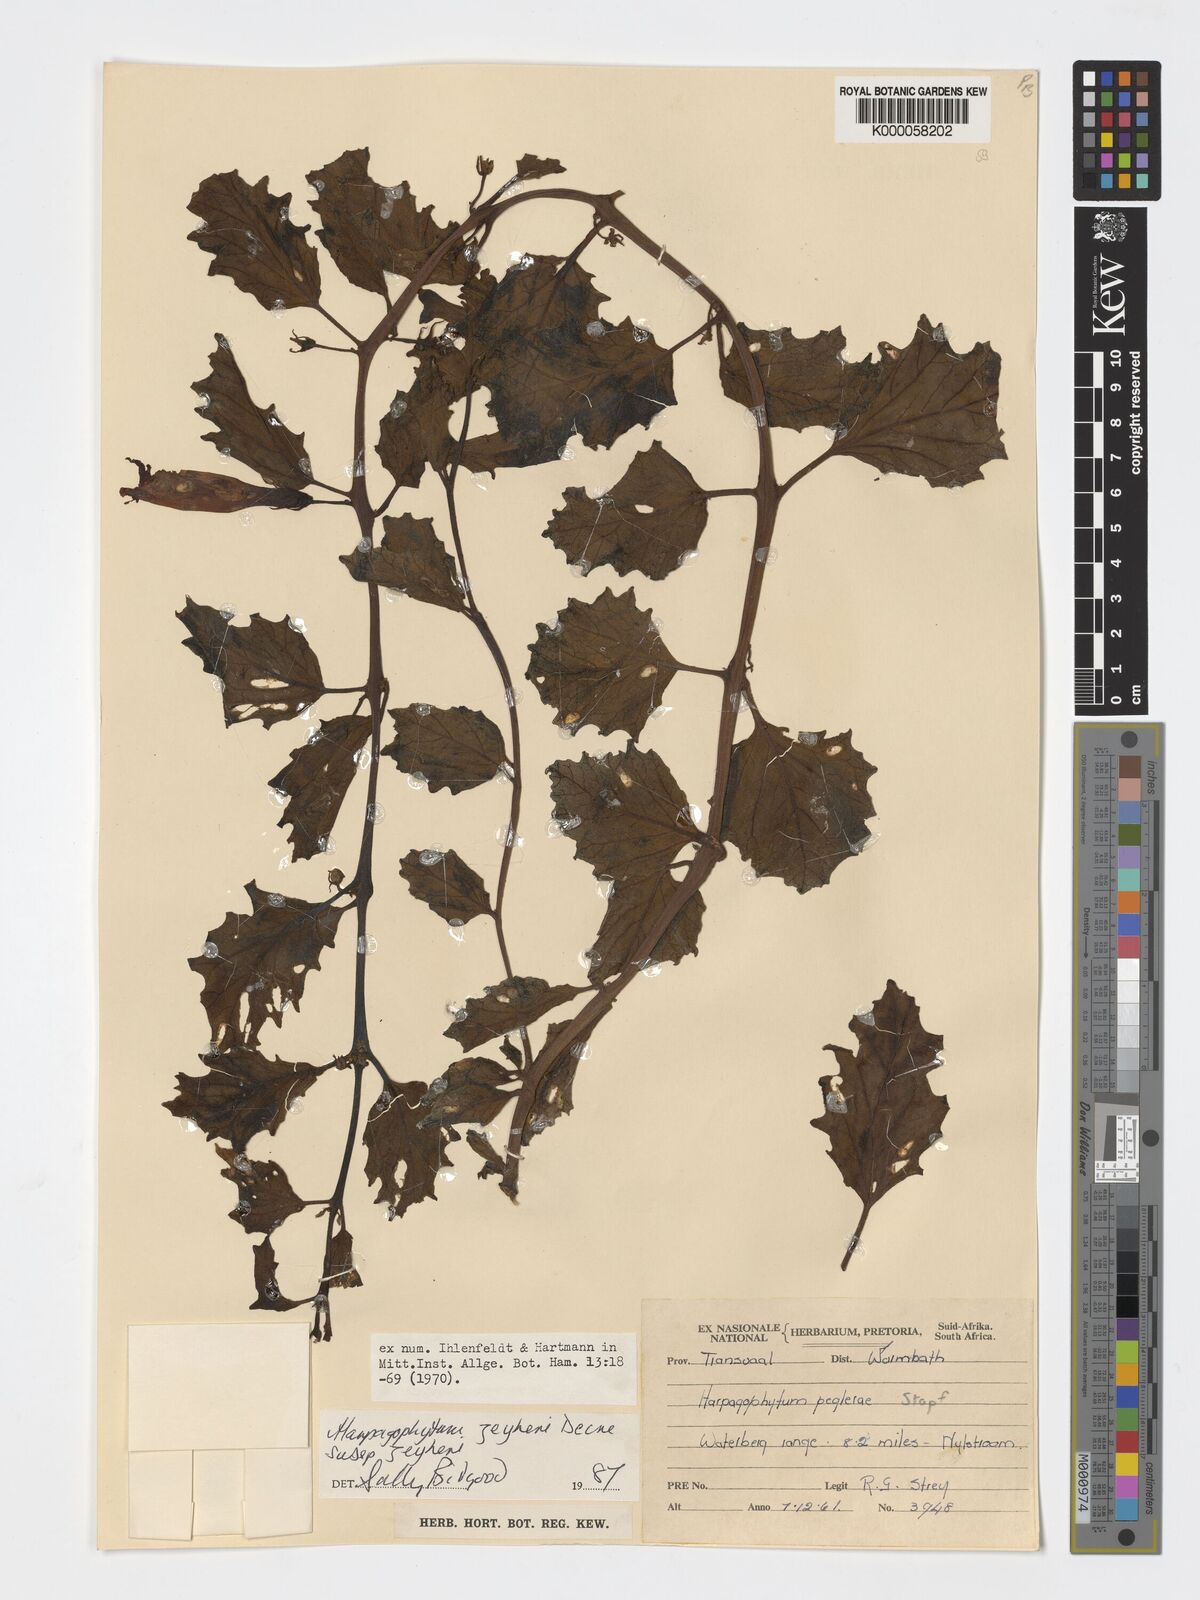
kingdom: Plantae
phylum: Tracheophyta
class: Magnoliopsida
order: Lamiales
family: Pedaliaceae
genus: Harpagophytum
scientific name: Harpagophytum zeyheri
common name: Grappleplant
